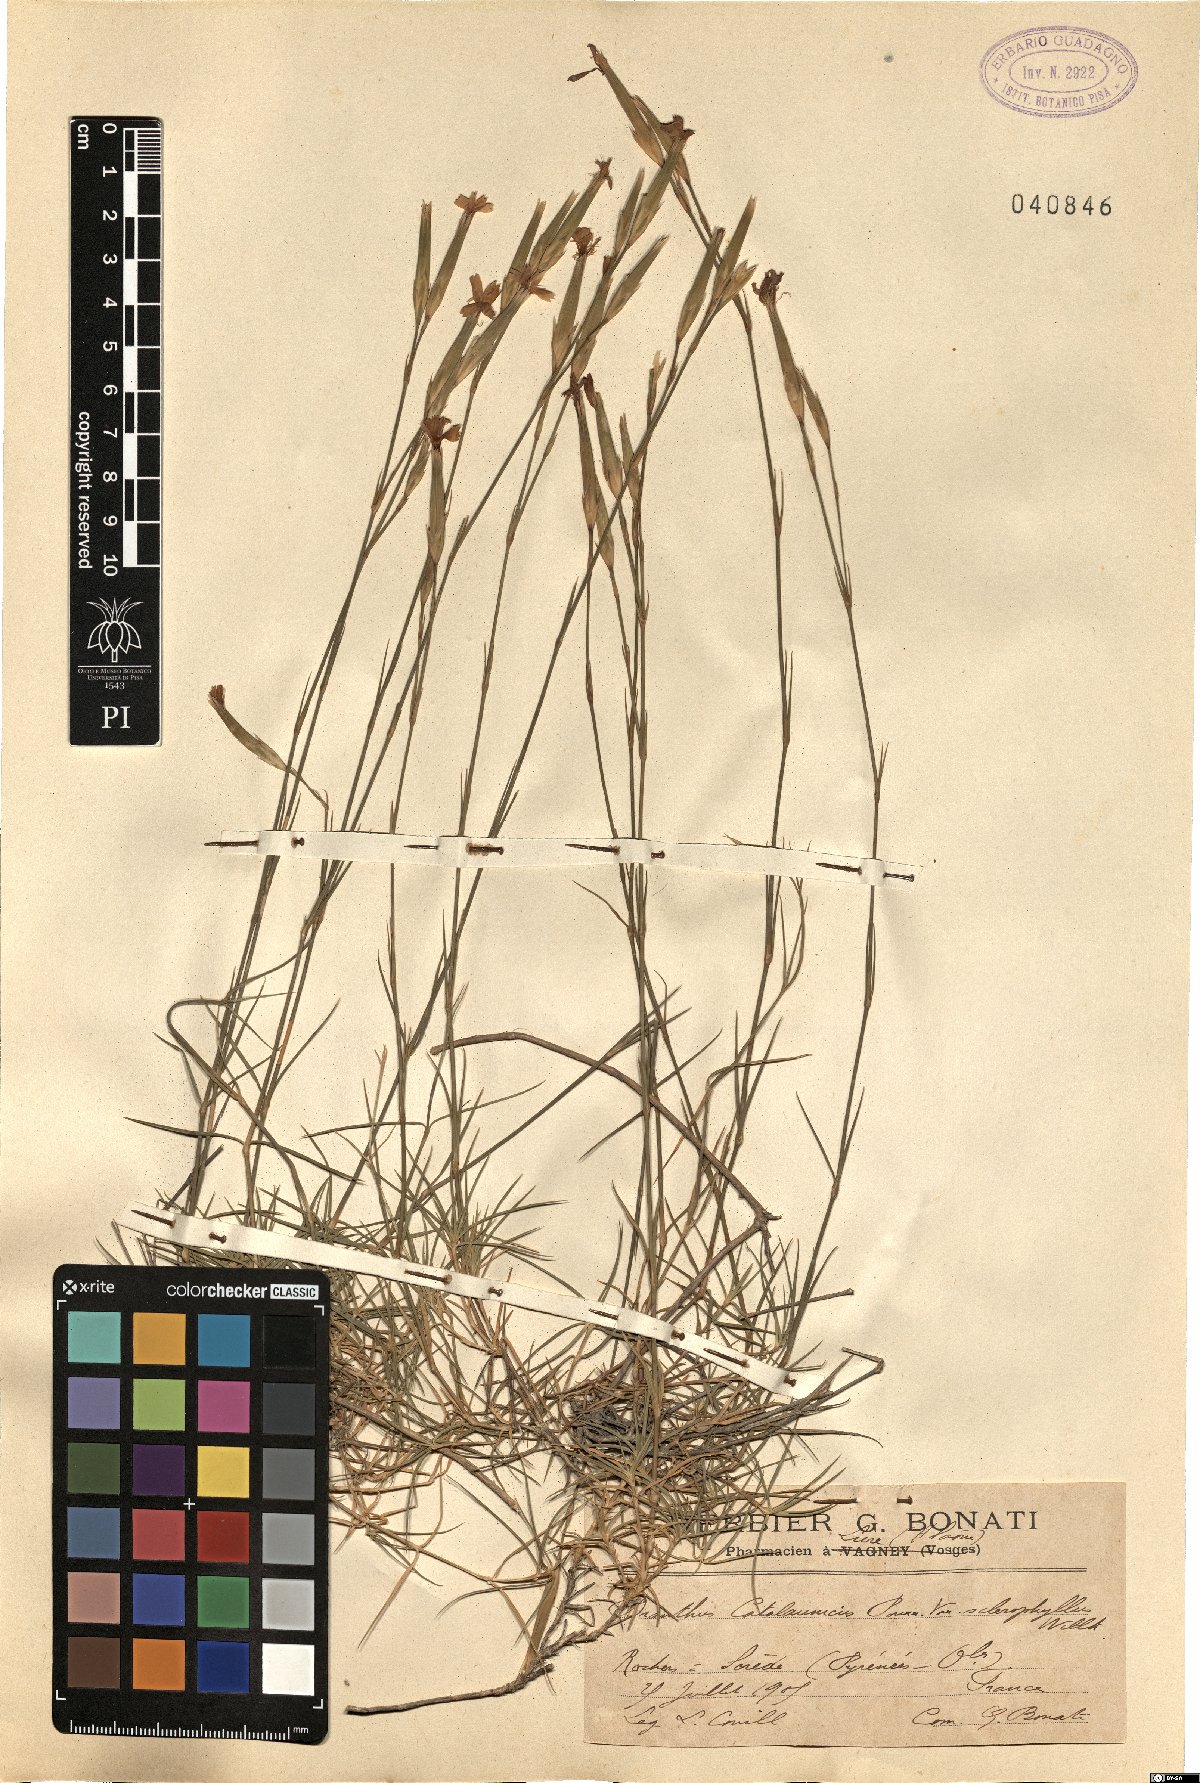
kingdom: Plantae
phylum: Tracheophyta
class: Magnoliopsida
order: Caryophyllales
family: Caryophyllaceae
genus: Dianthus
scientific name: Dianthus pyrenaicus
